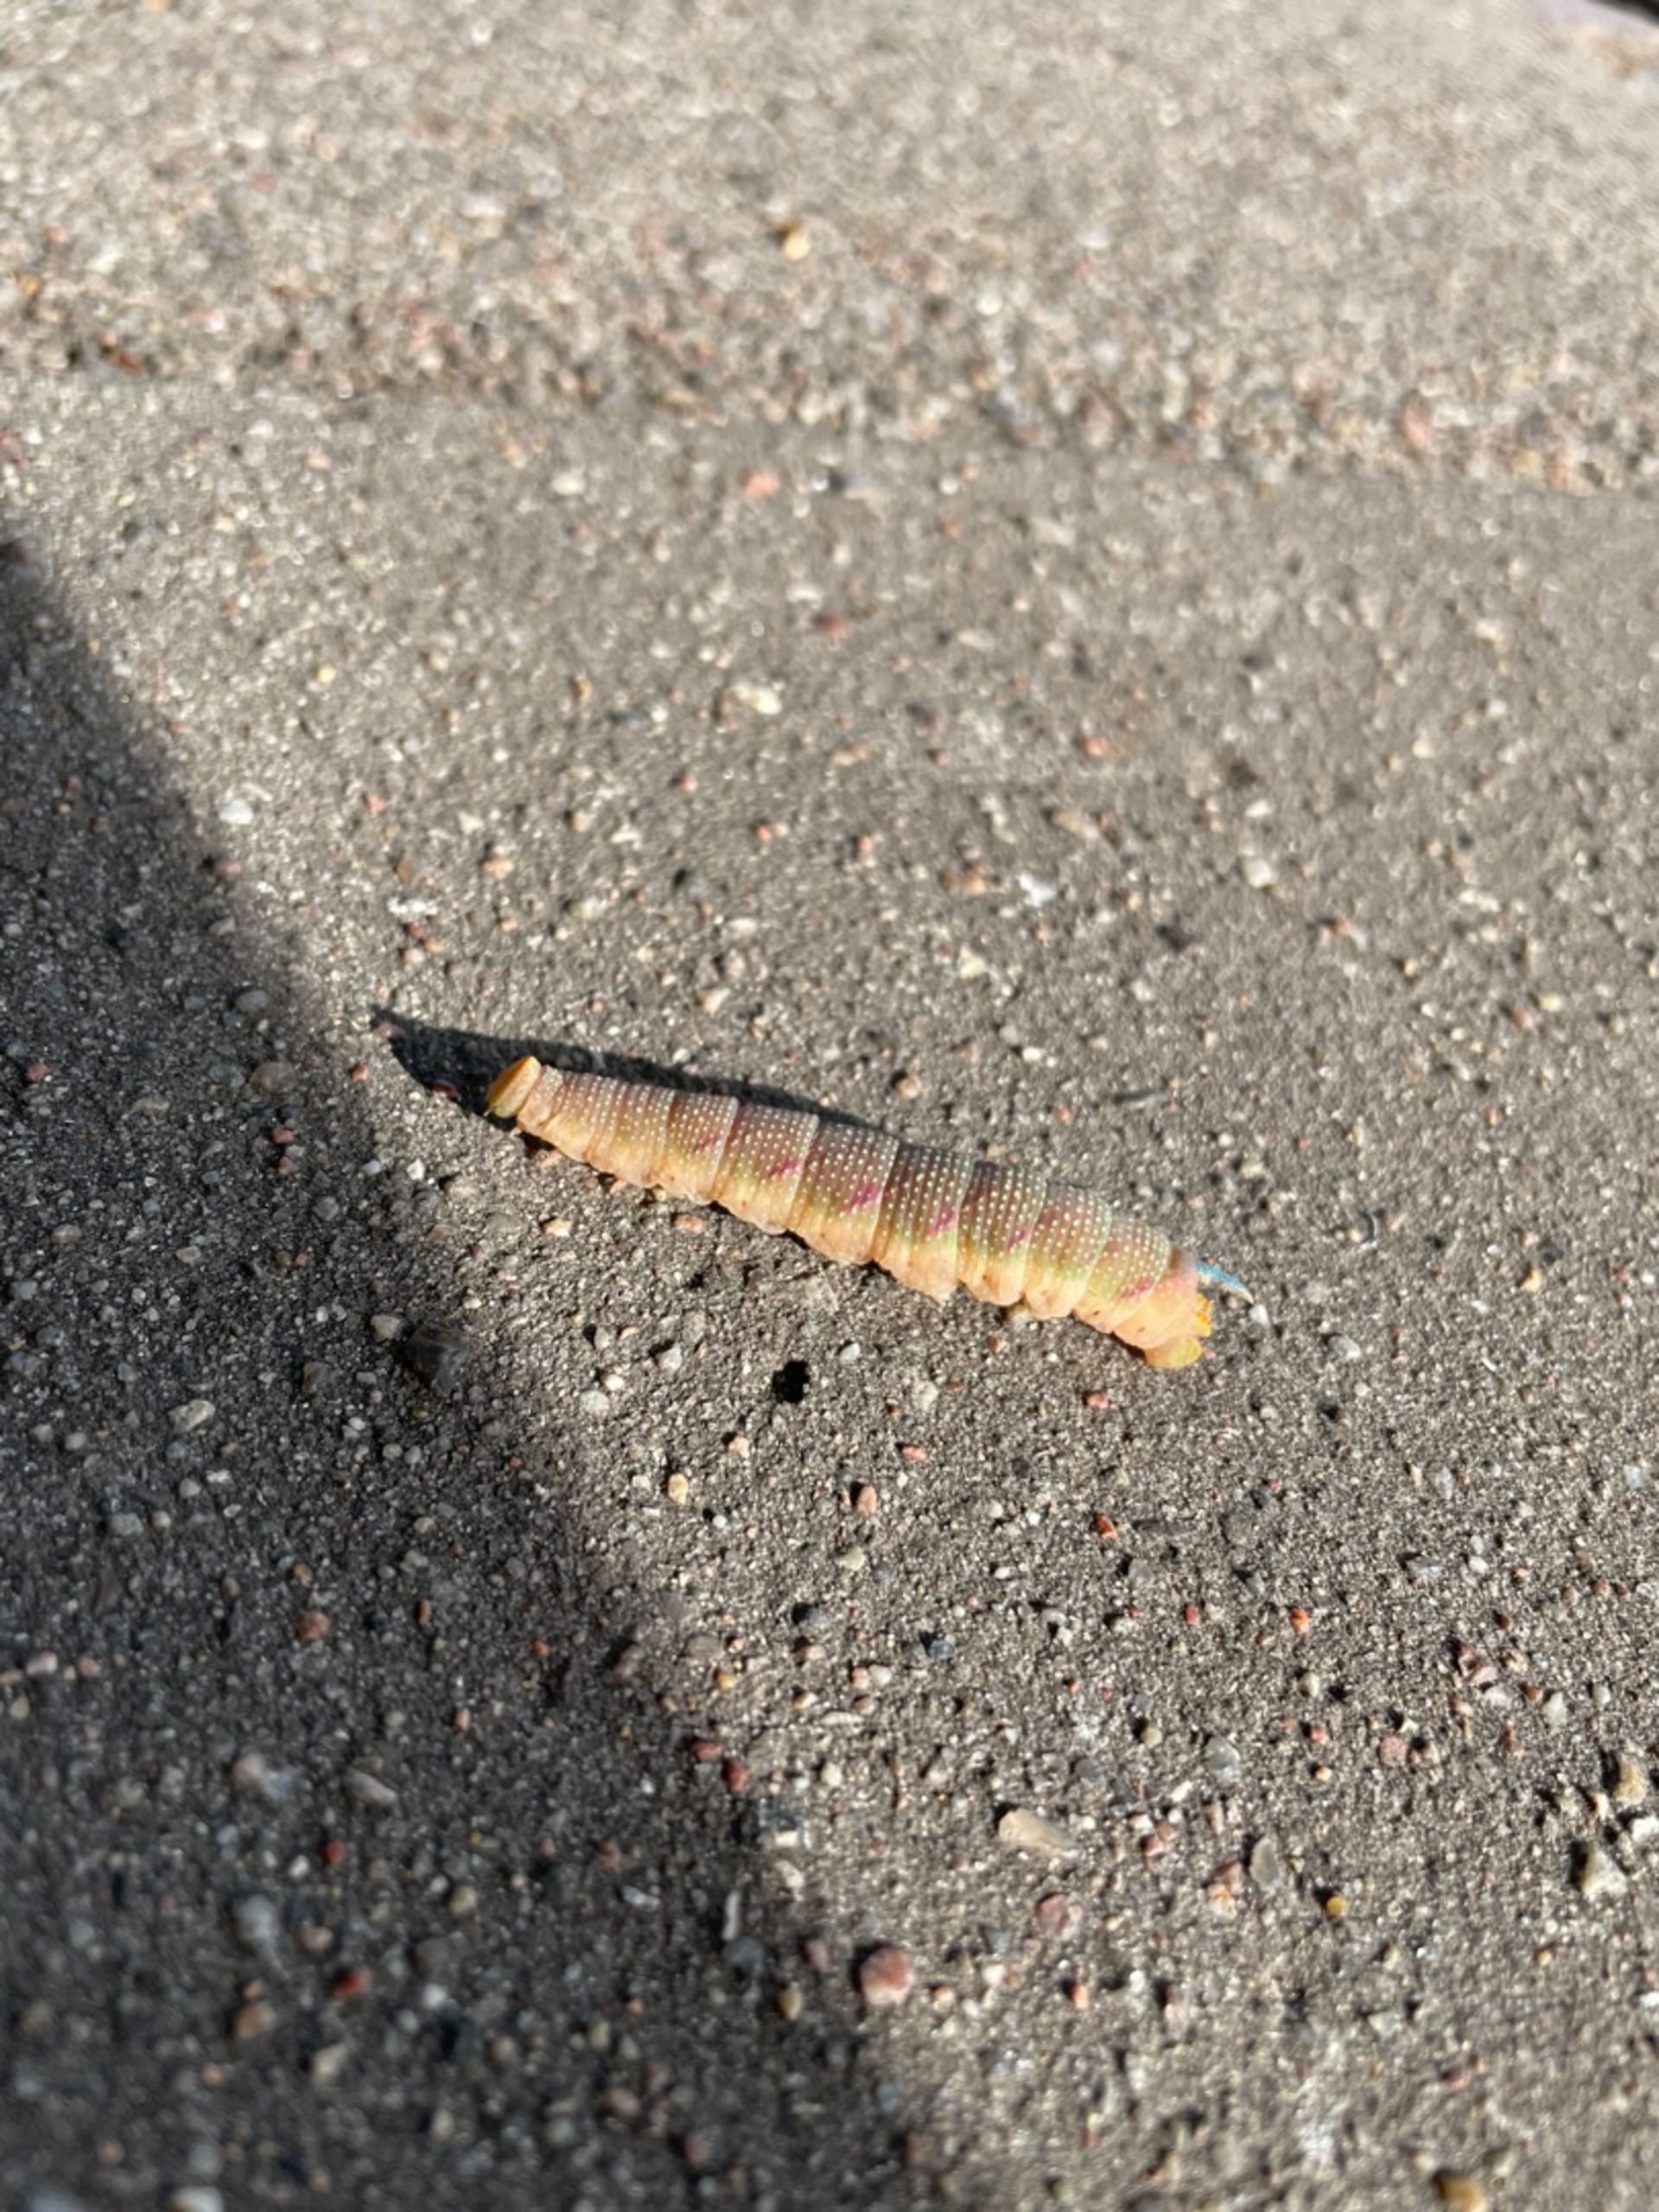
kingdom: Animalia
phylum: Arthropoda
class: Insecta
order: Lepidoptera
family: Sphingidae
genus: Mimas
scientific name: Mimas tiliae
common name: Lindesværmer
